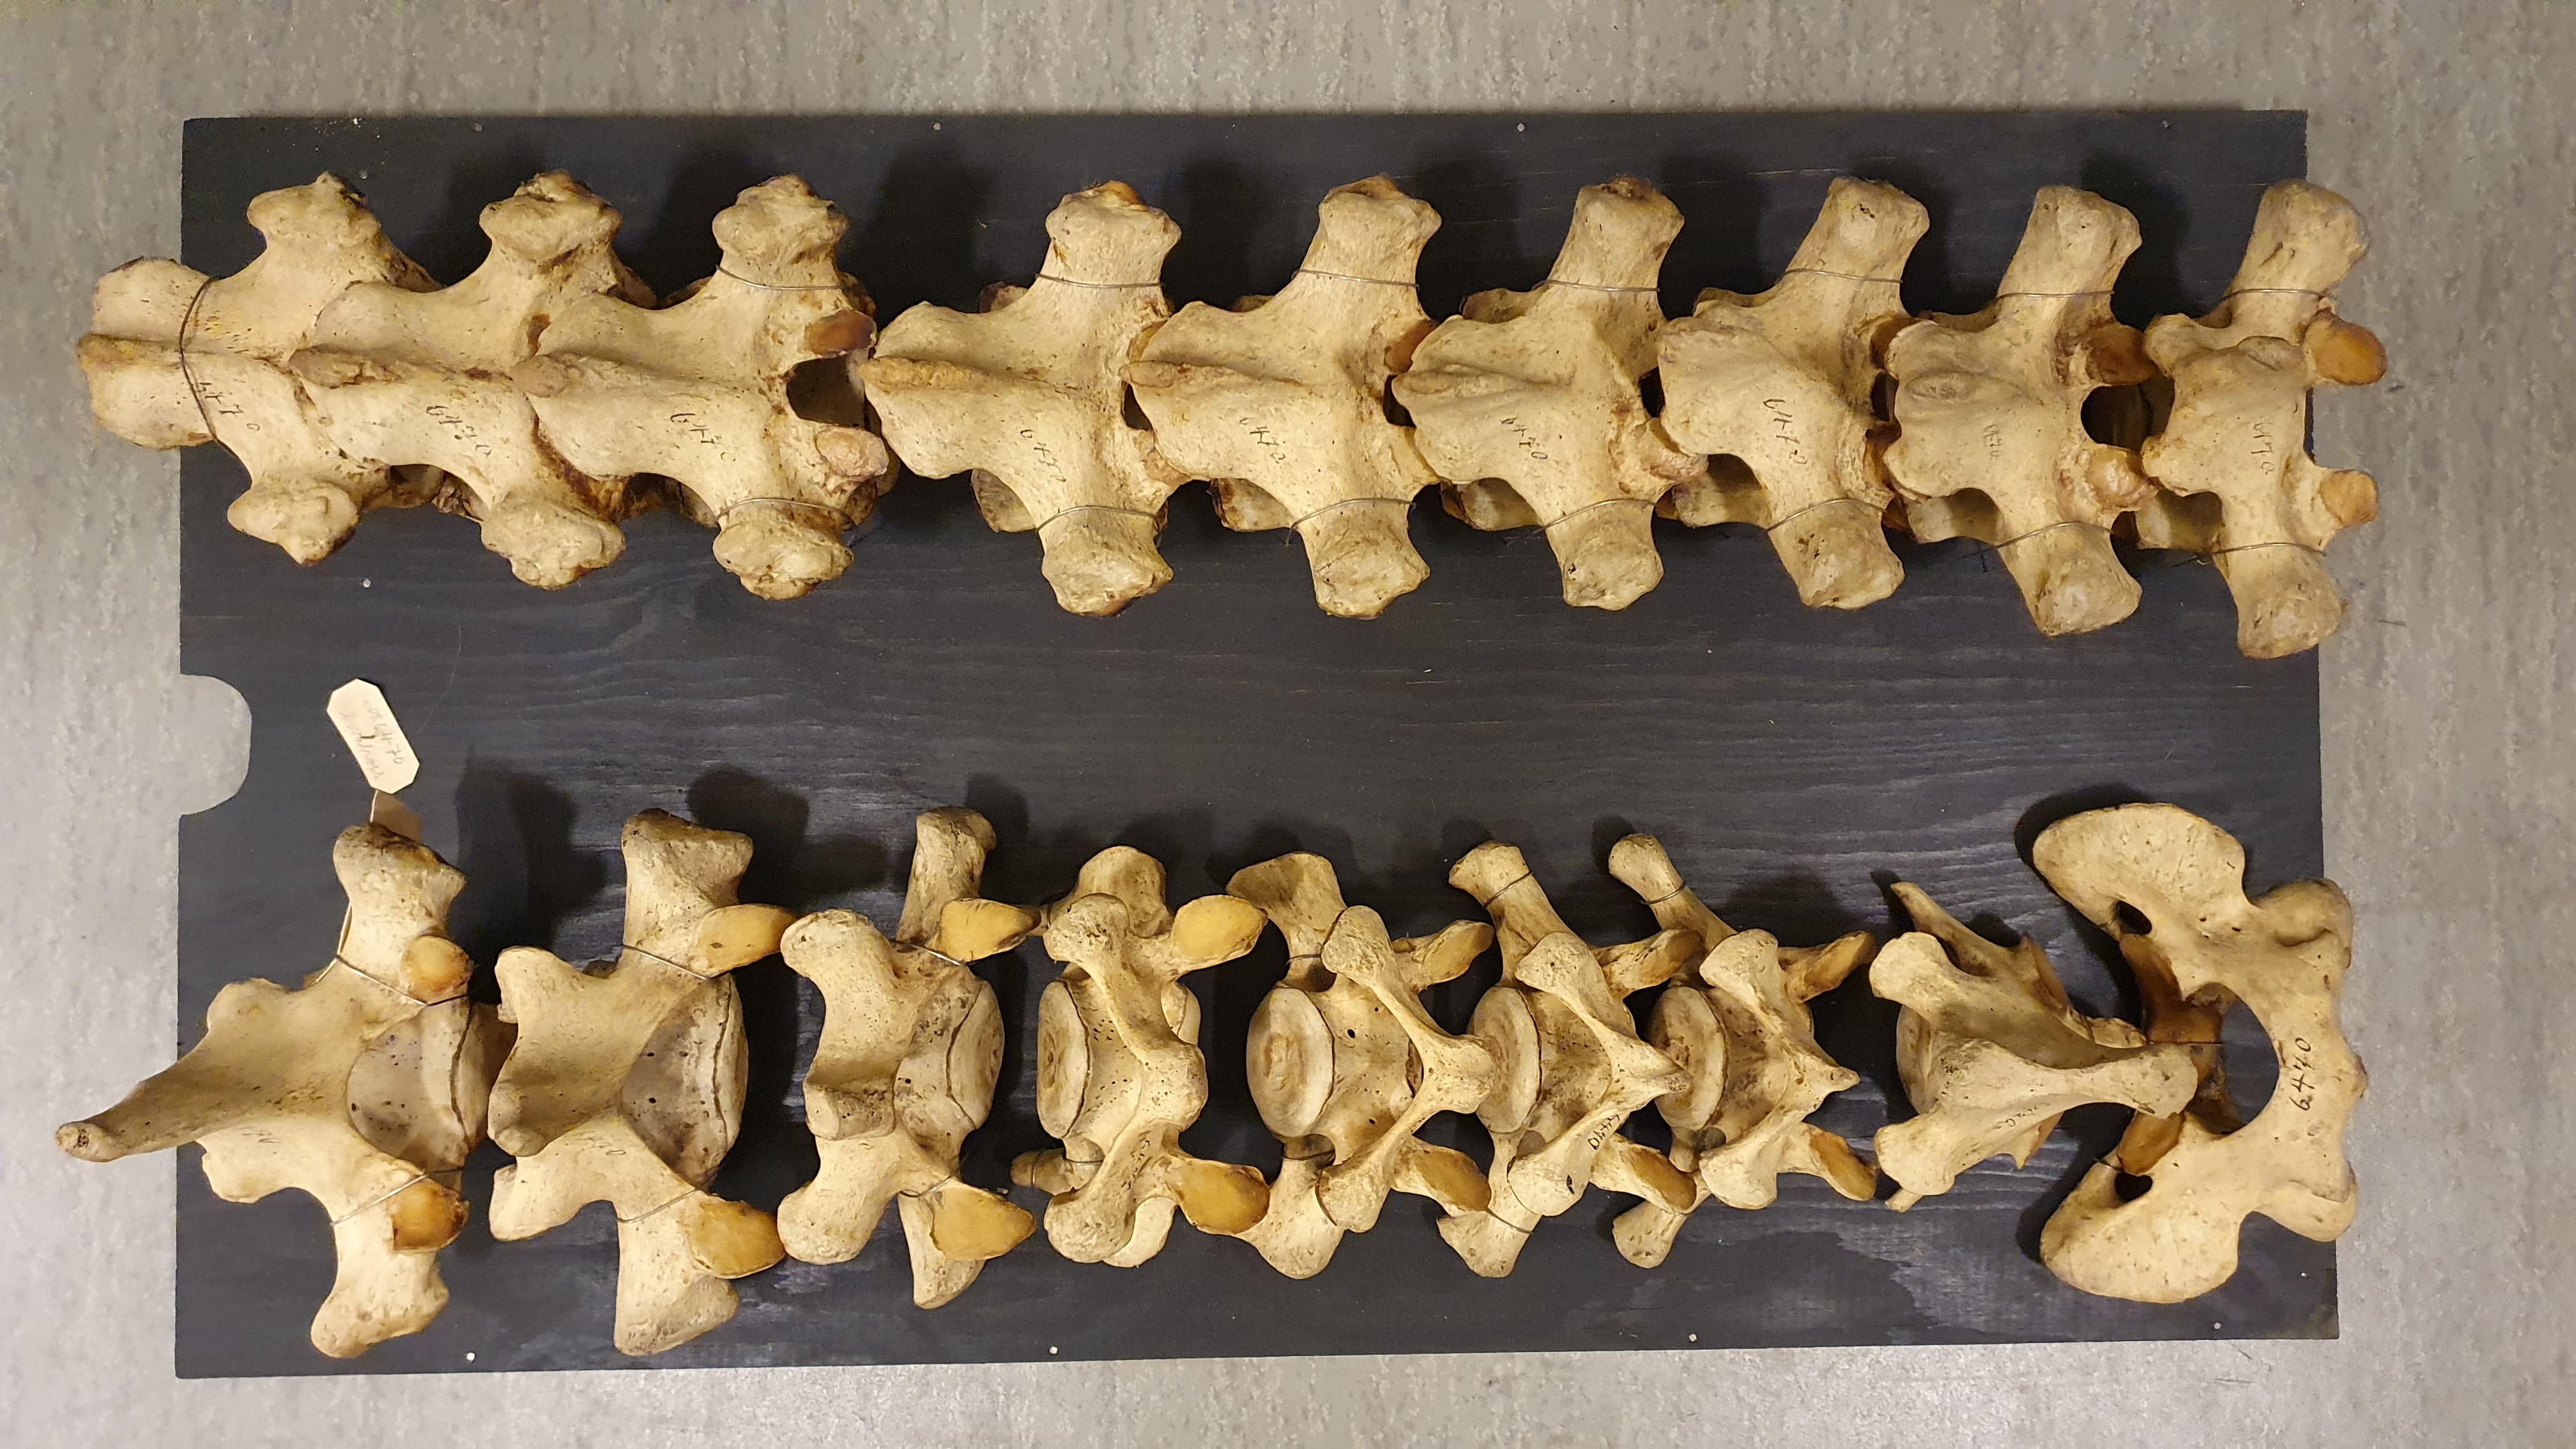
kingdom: Animalia
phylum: Chordata
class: Mammalia
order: Carnivora
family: Odobenidae
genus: Odobenus
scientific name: Odobenus rosmarus
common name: Walrus
